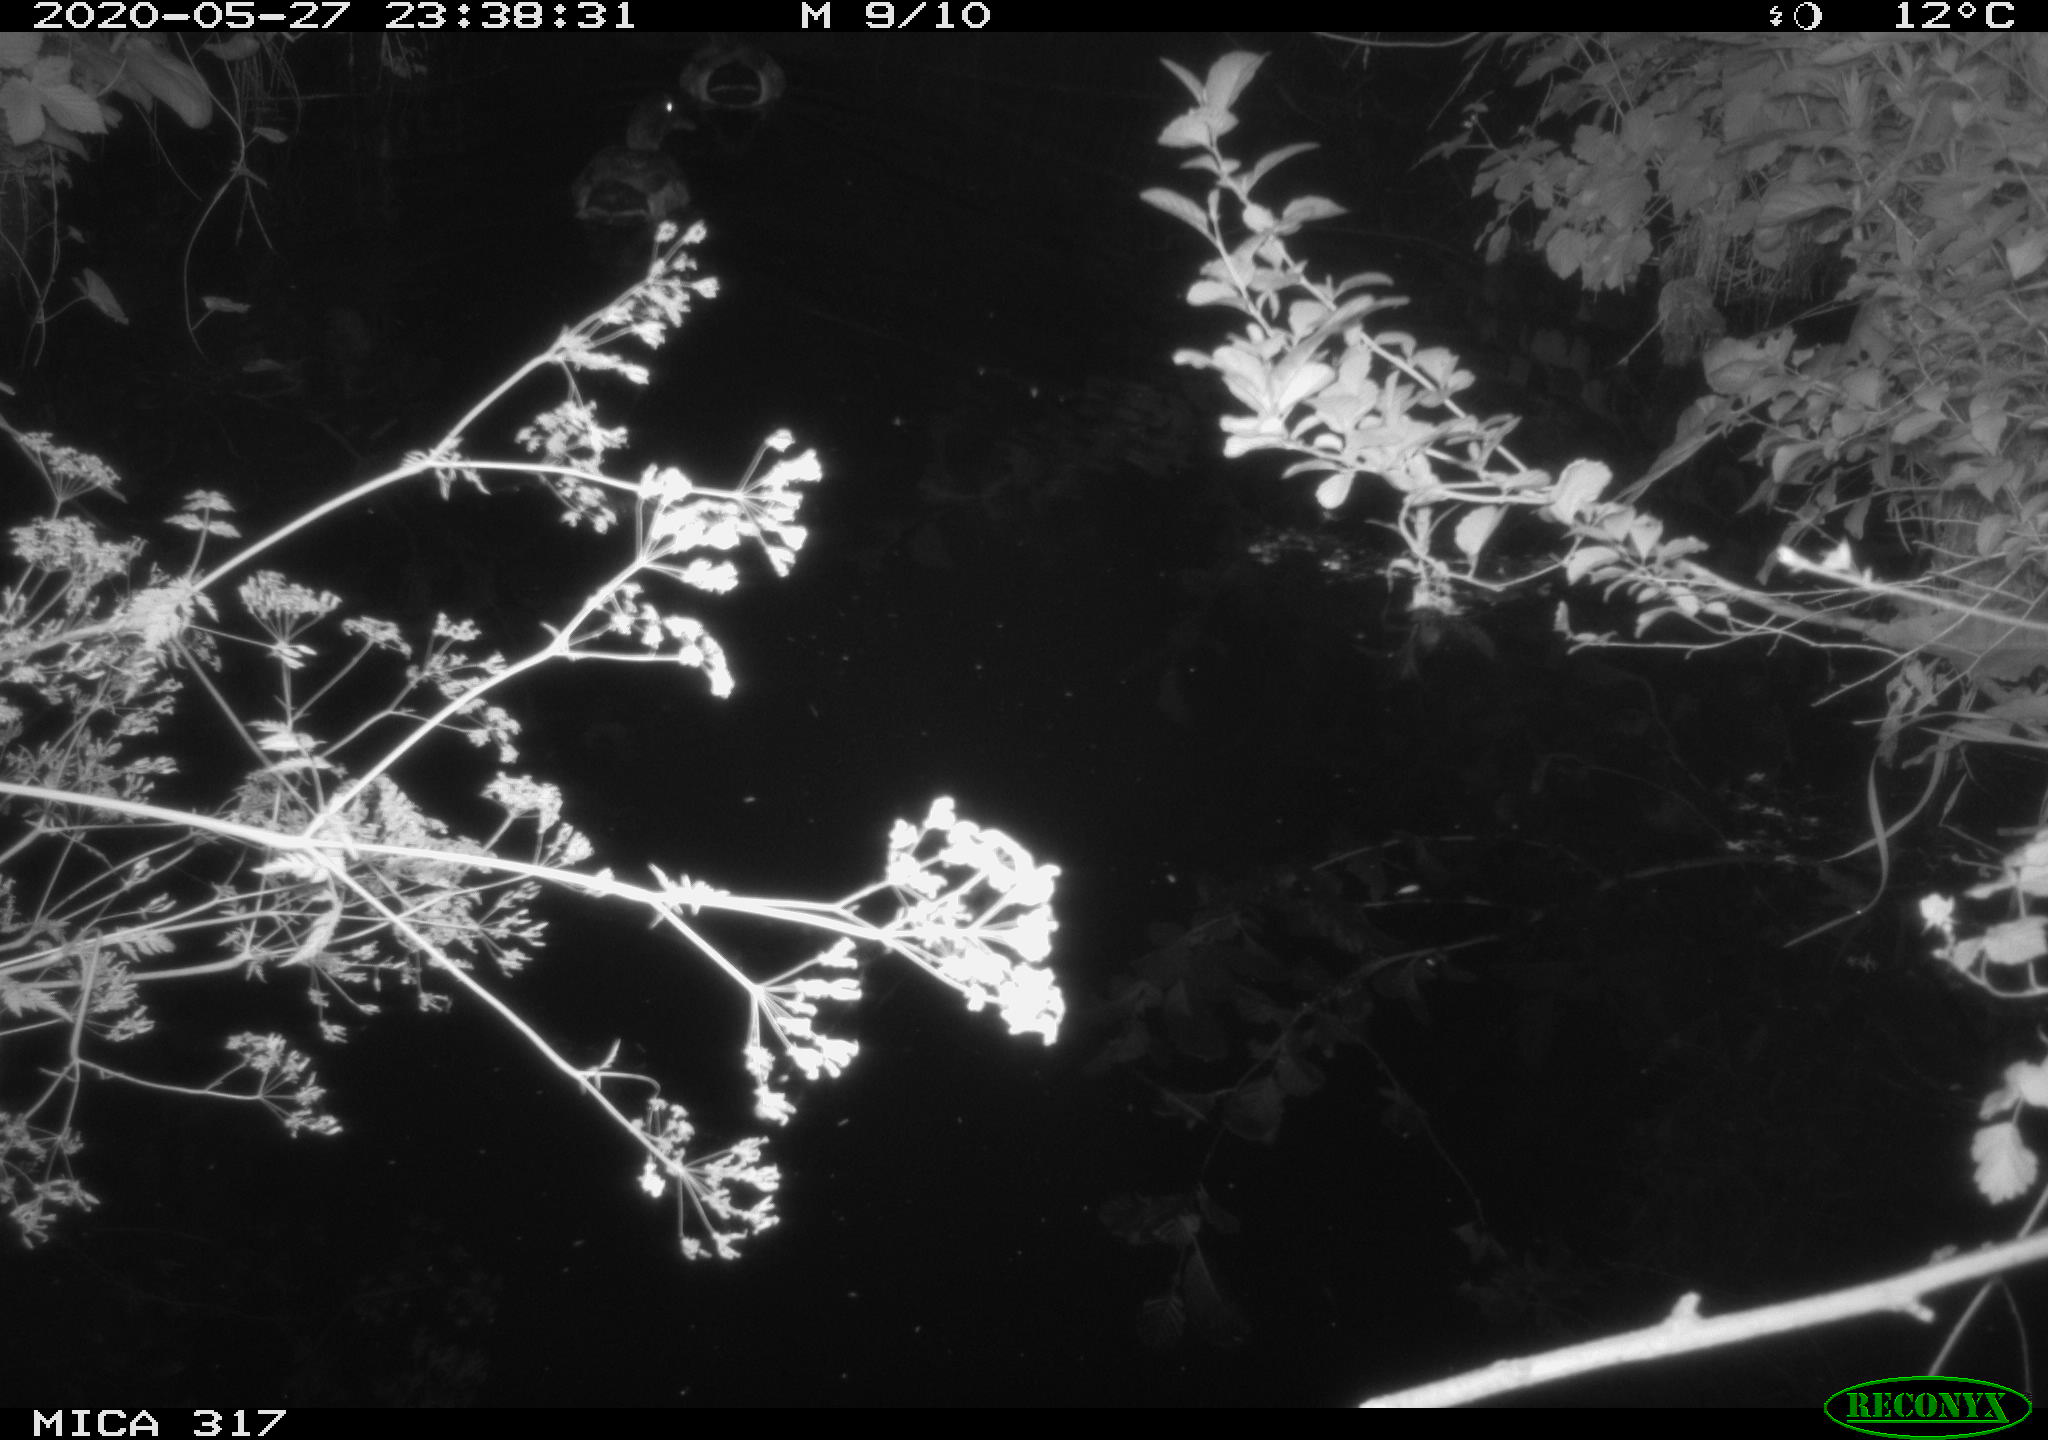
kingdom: Animalia
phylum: Chordata
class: Aves
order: Anseriformes
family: Anatidae
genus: Anas
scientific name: Anas platyrhynchos
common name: Mallard
